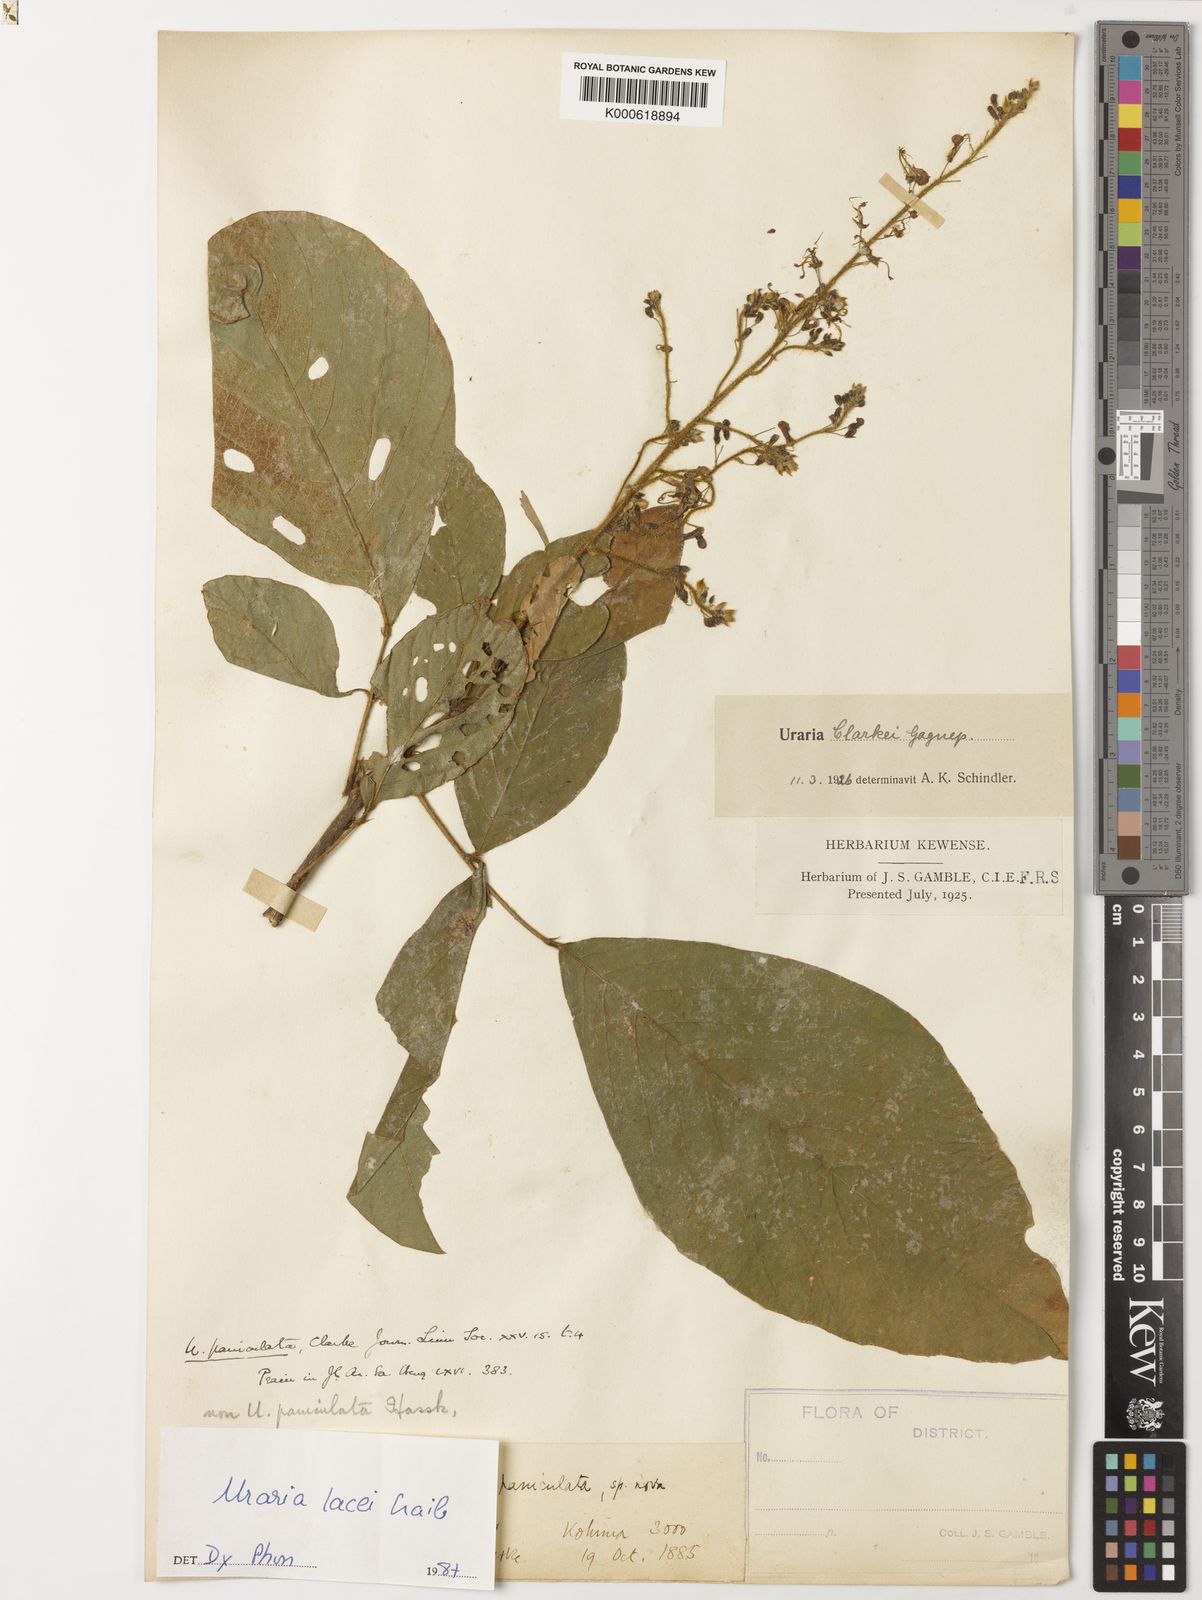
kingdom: Plantae
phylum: Tracheophyta
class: Magnoliopsida
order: Fabales
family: Fabaceae
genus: Uraria
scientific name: Uraria lacei
